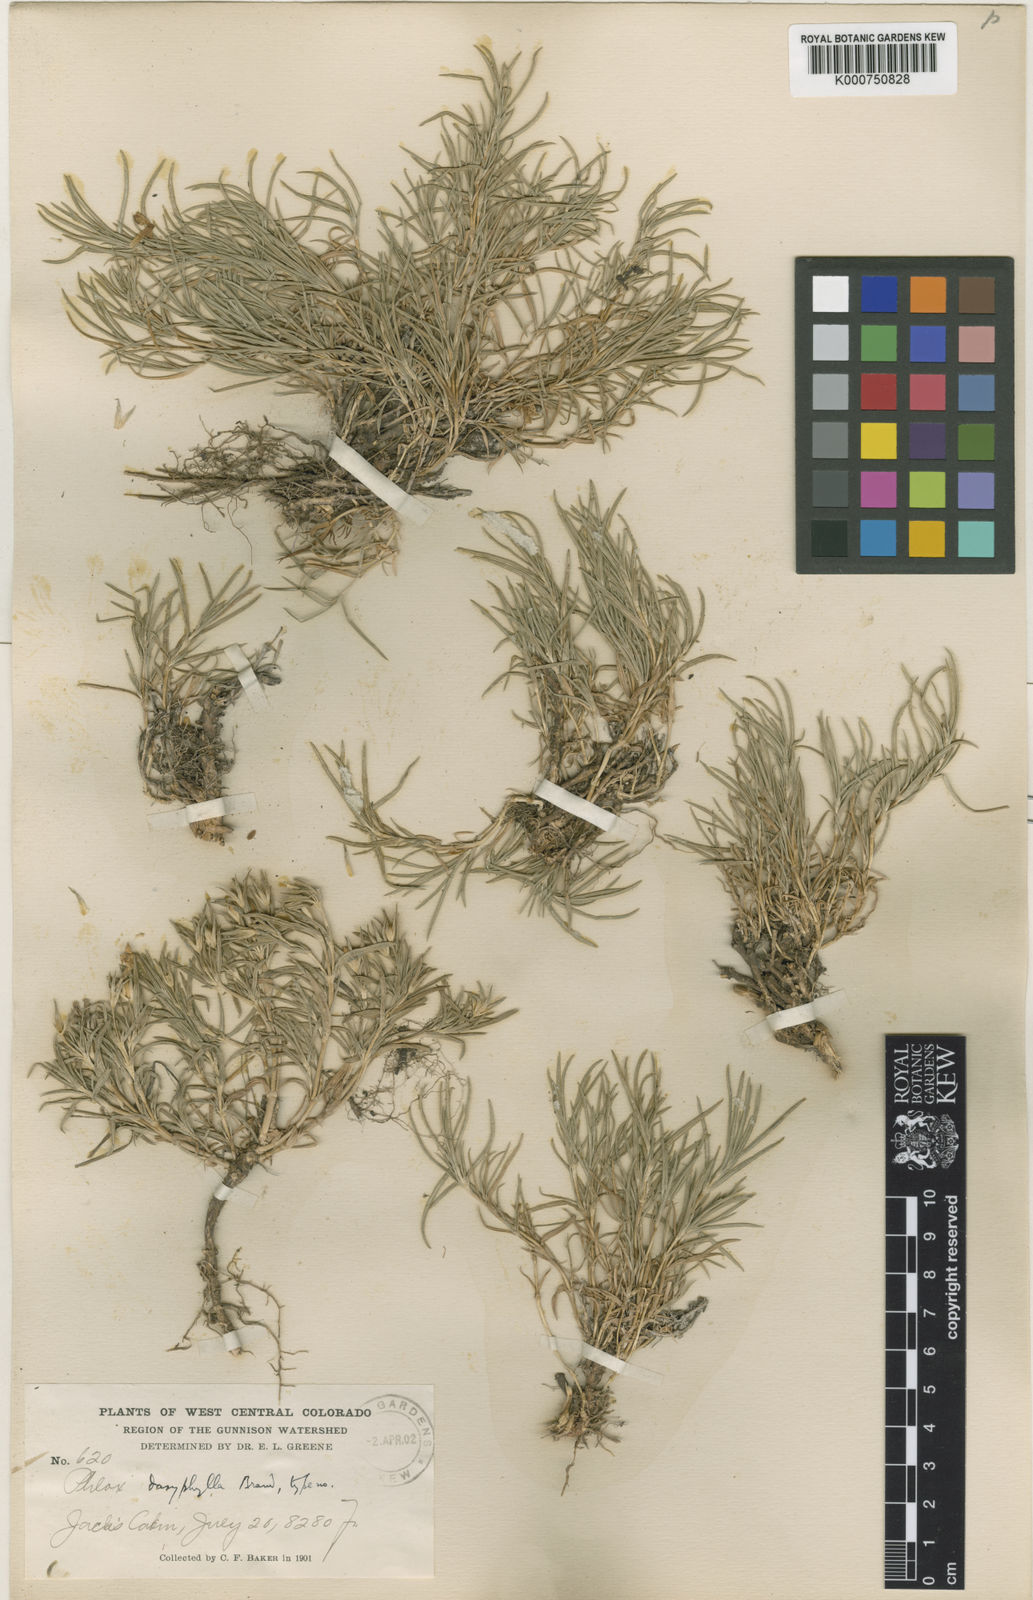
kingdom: Plantae
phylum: Tracheophyta
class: Magnoliopsida
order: Ericales
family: Polemoniaceae
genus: Phlox
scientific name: Phlox multiflora
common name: Rocky mountain phlox
